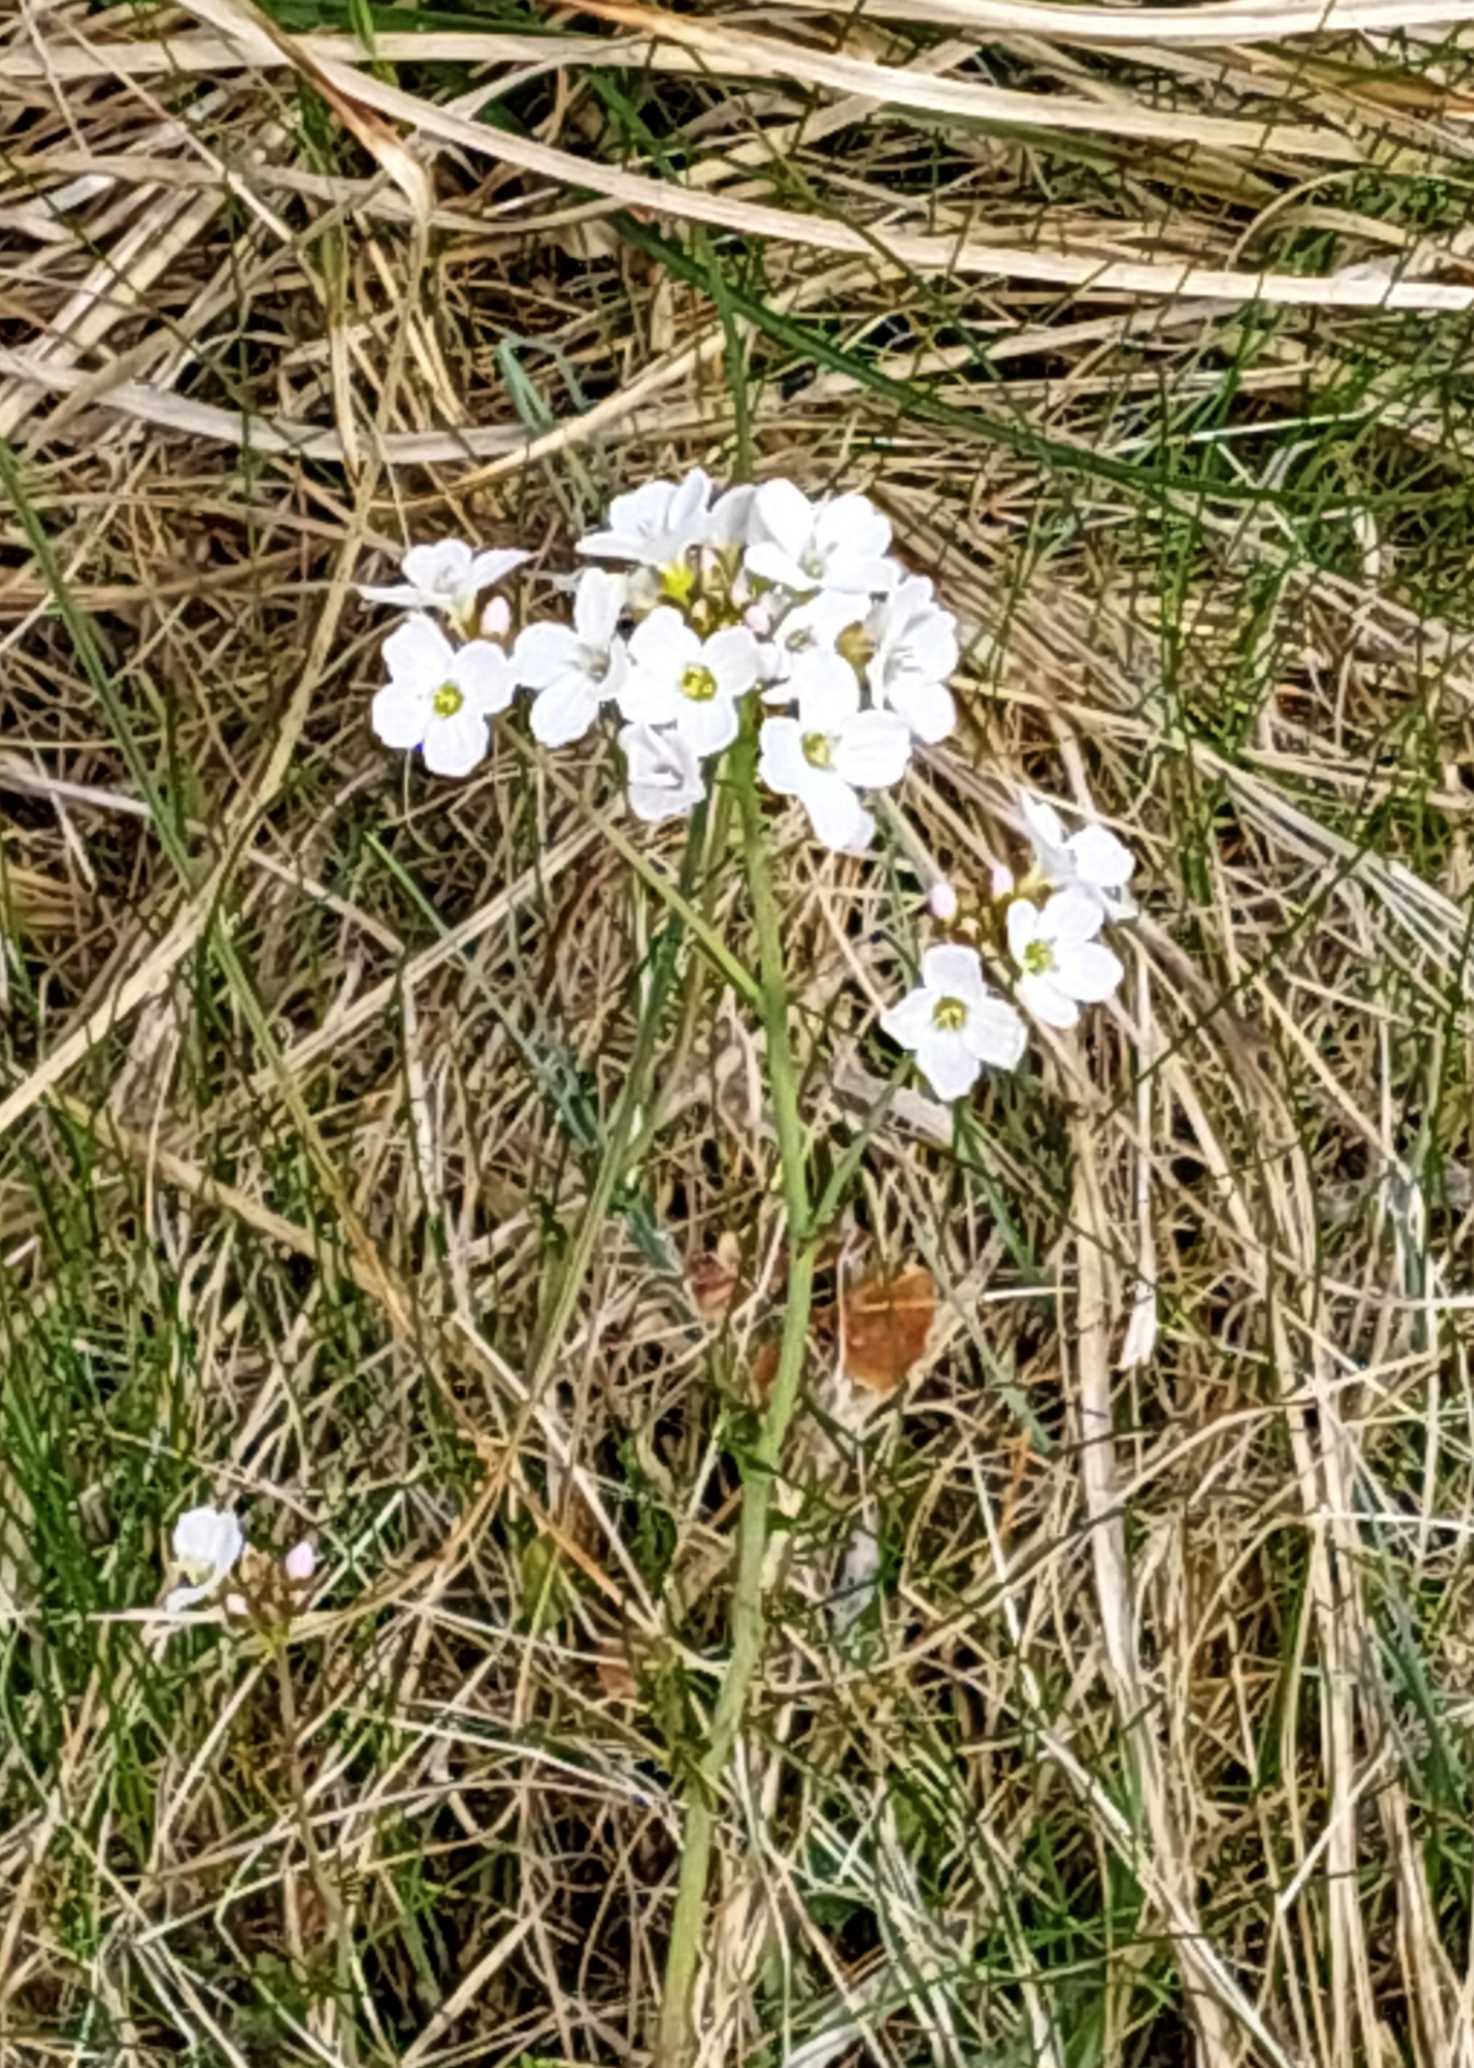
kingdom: Plantae
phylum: Tracheophyta
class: Magnoliopsida
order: Brassicales
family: Brassicaceae
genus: Cardamine
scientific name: Cardamine pratensis
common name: Engkarse
